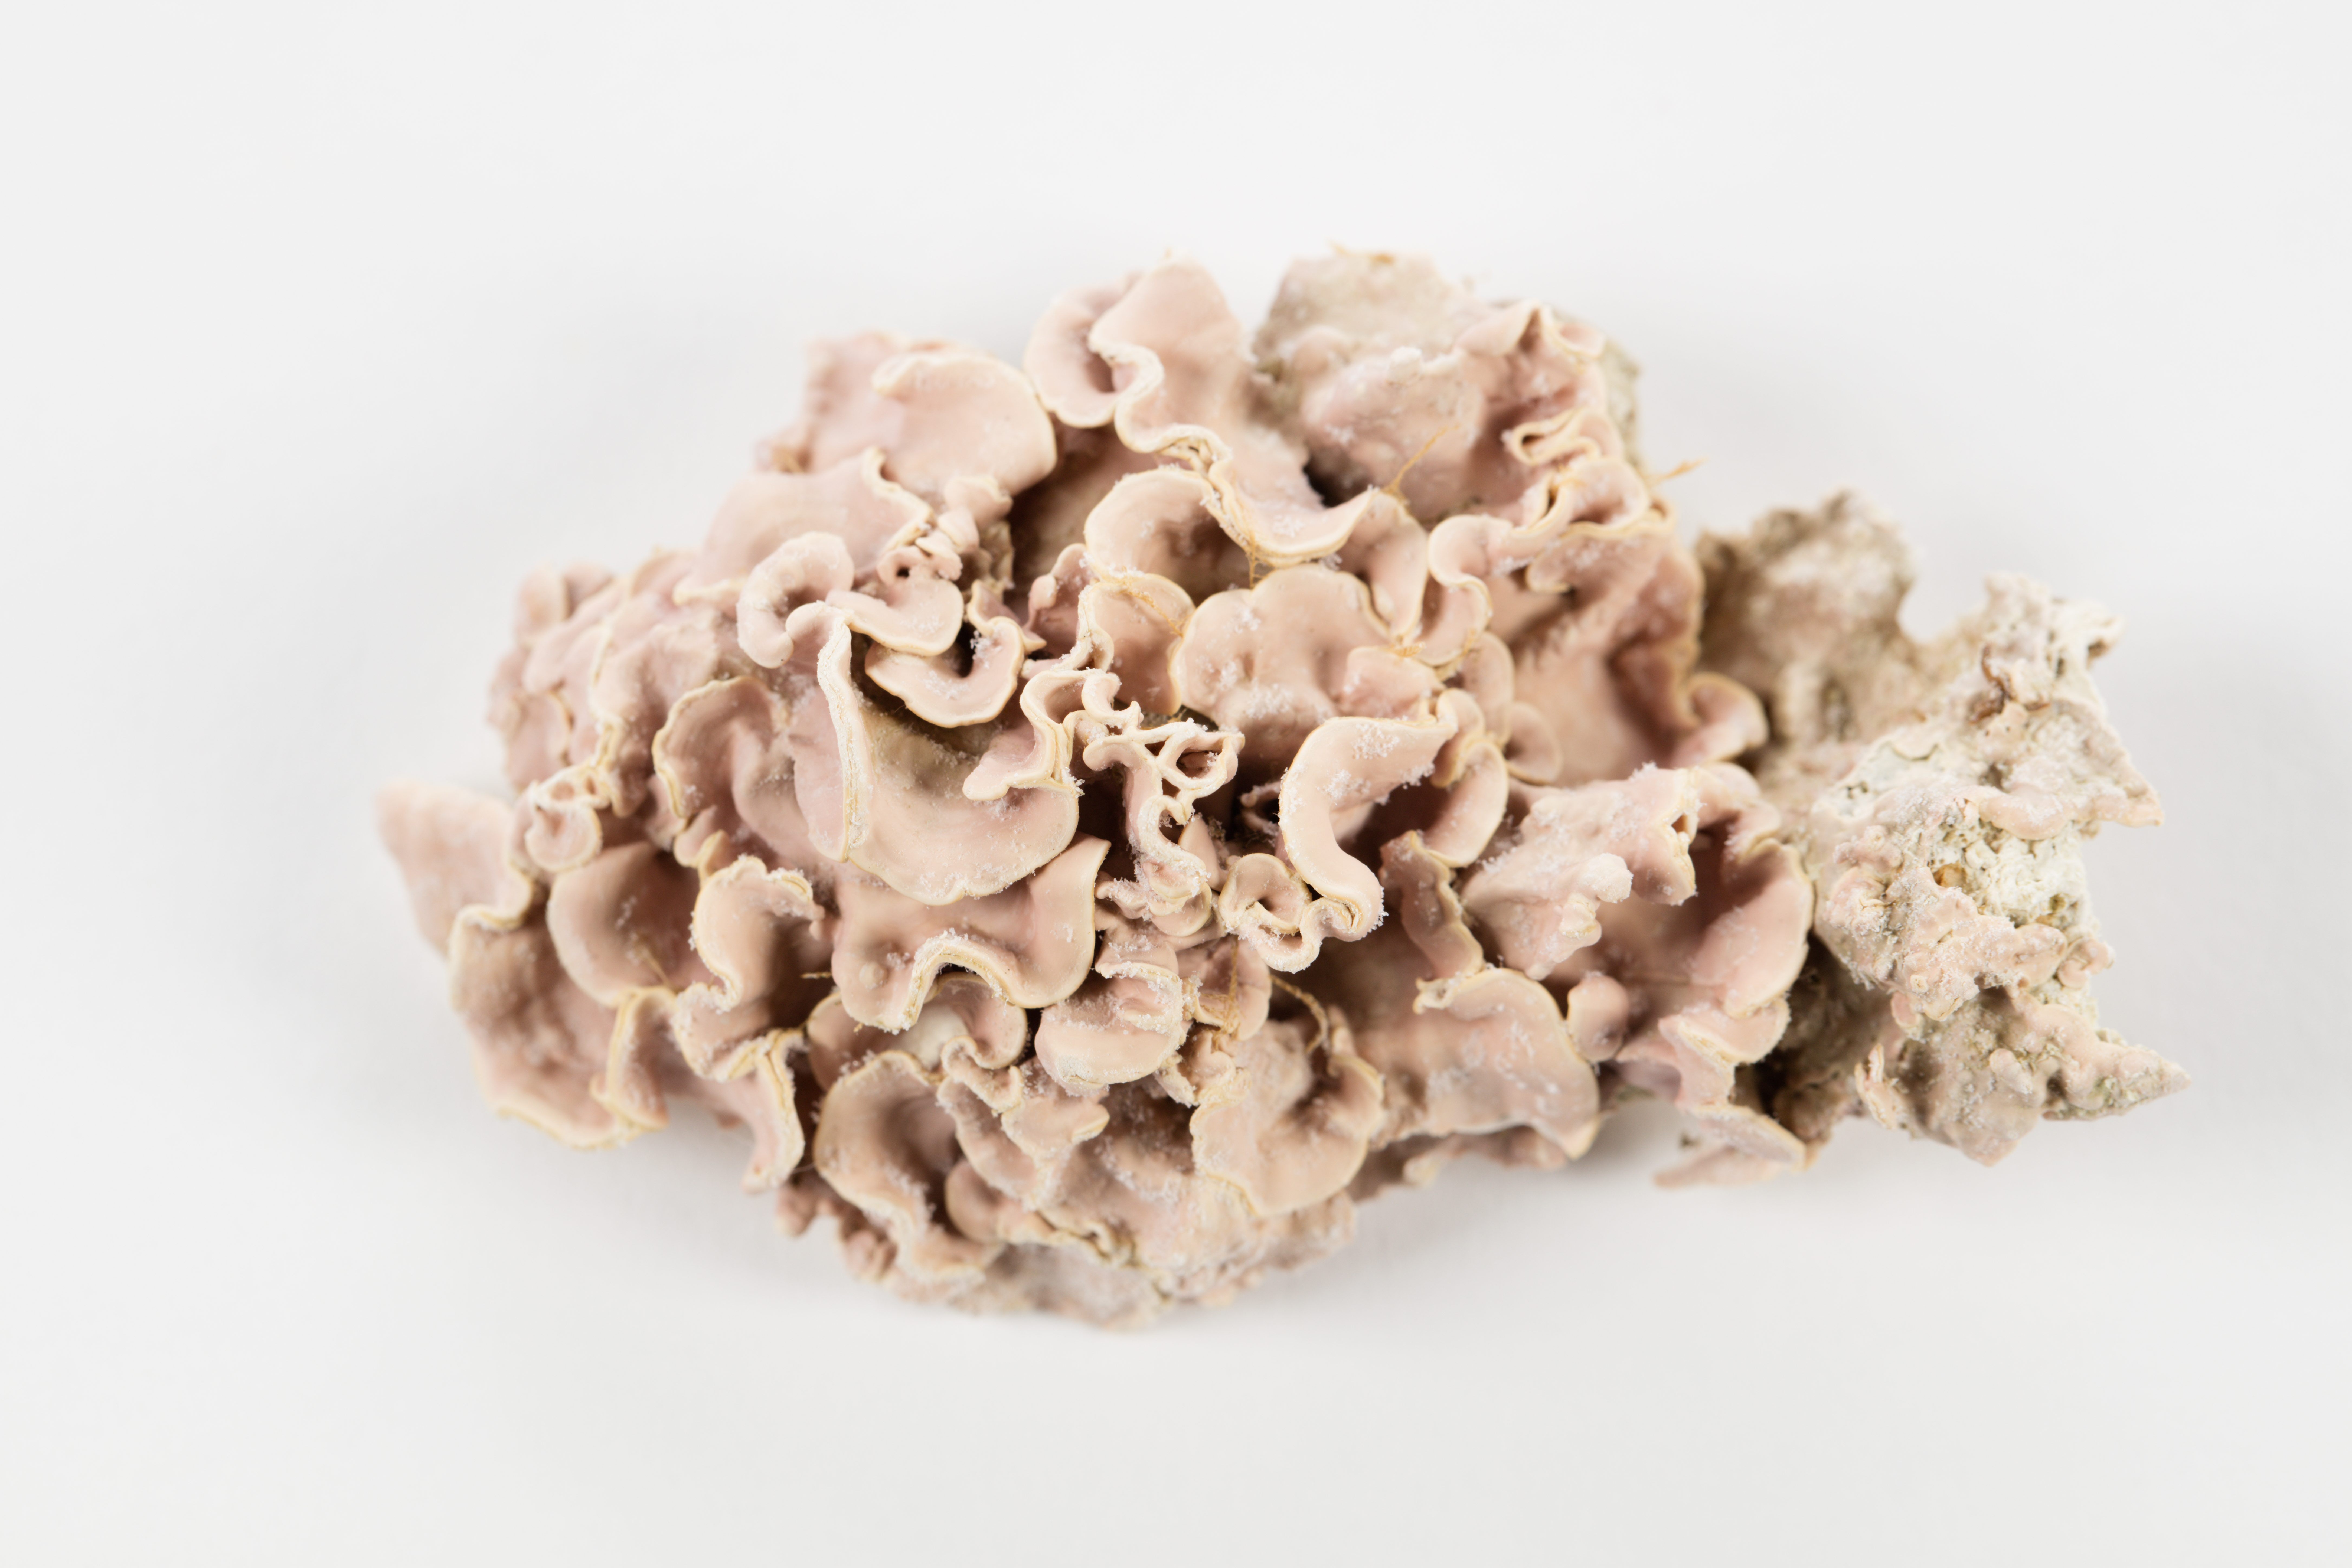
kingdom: Plantae
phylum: Rhodophyta
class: Florideophyceae
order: Corallinales
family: Mesophyllumaceae
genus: Mesophyllum
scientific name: Mesophyllum
